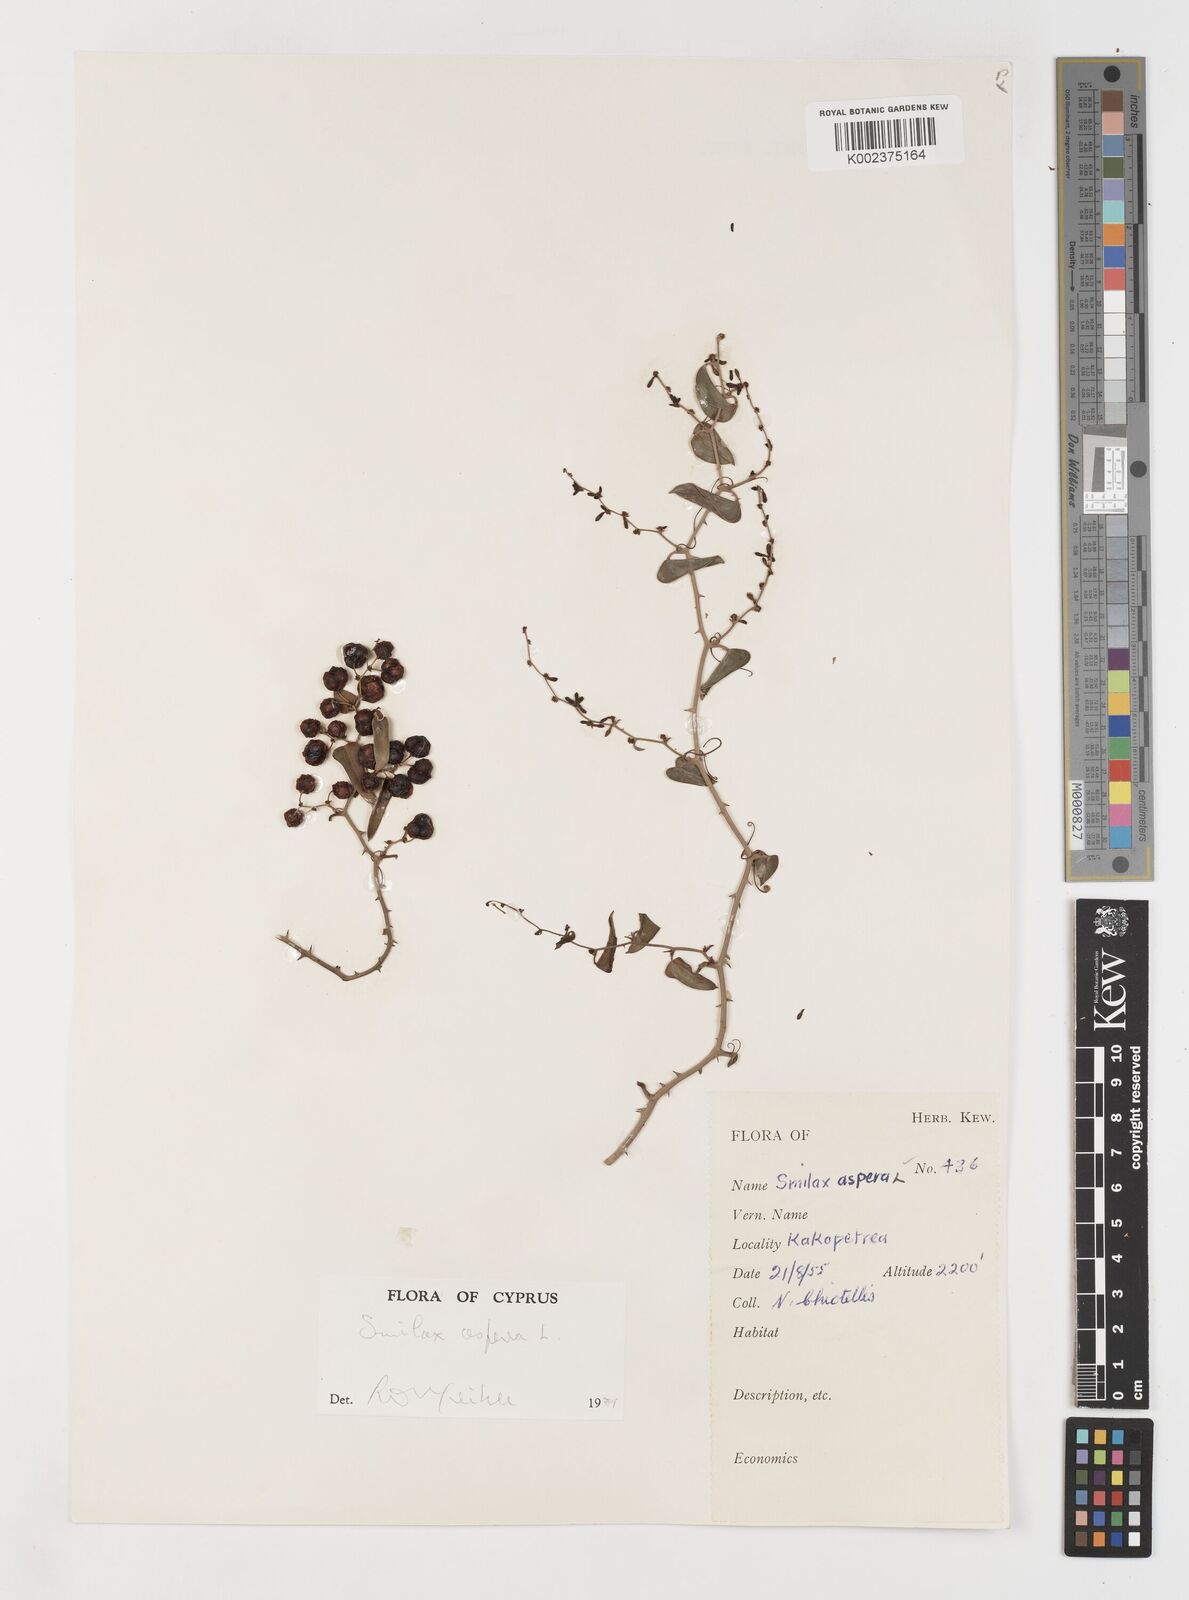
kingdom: Plantae
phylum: Tracheophyta
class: Liliopsida
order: Liliales
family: Smilacaceae
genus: Smilax
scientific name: Smilax aspera
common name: Common smilax
